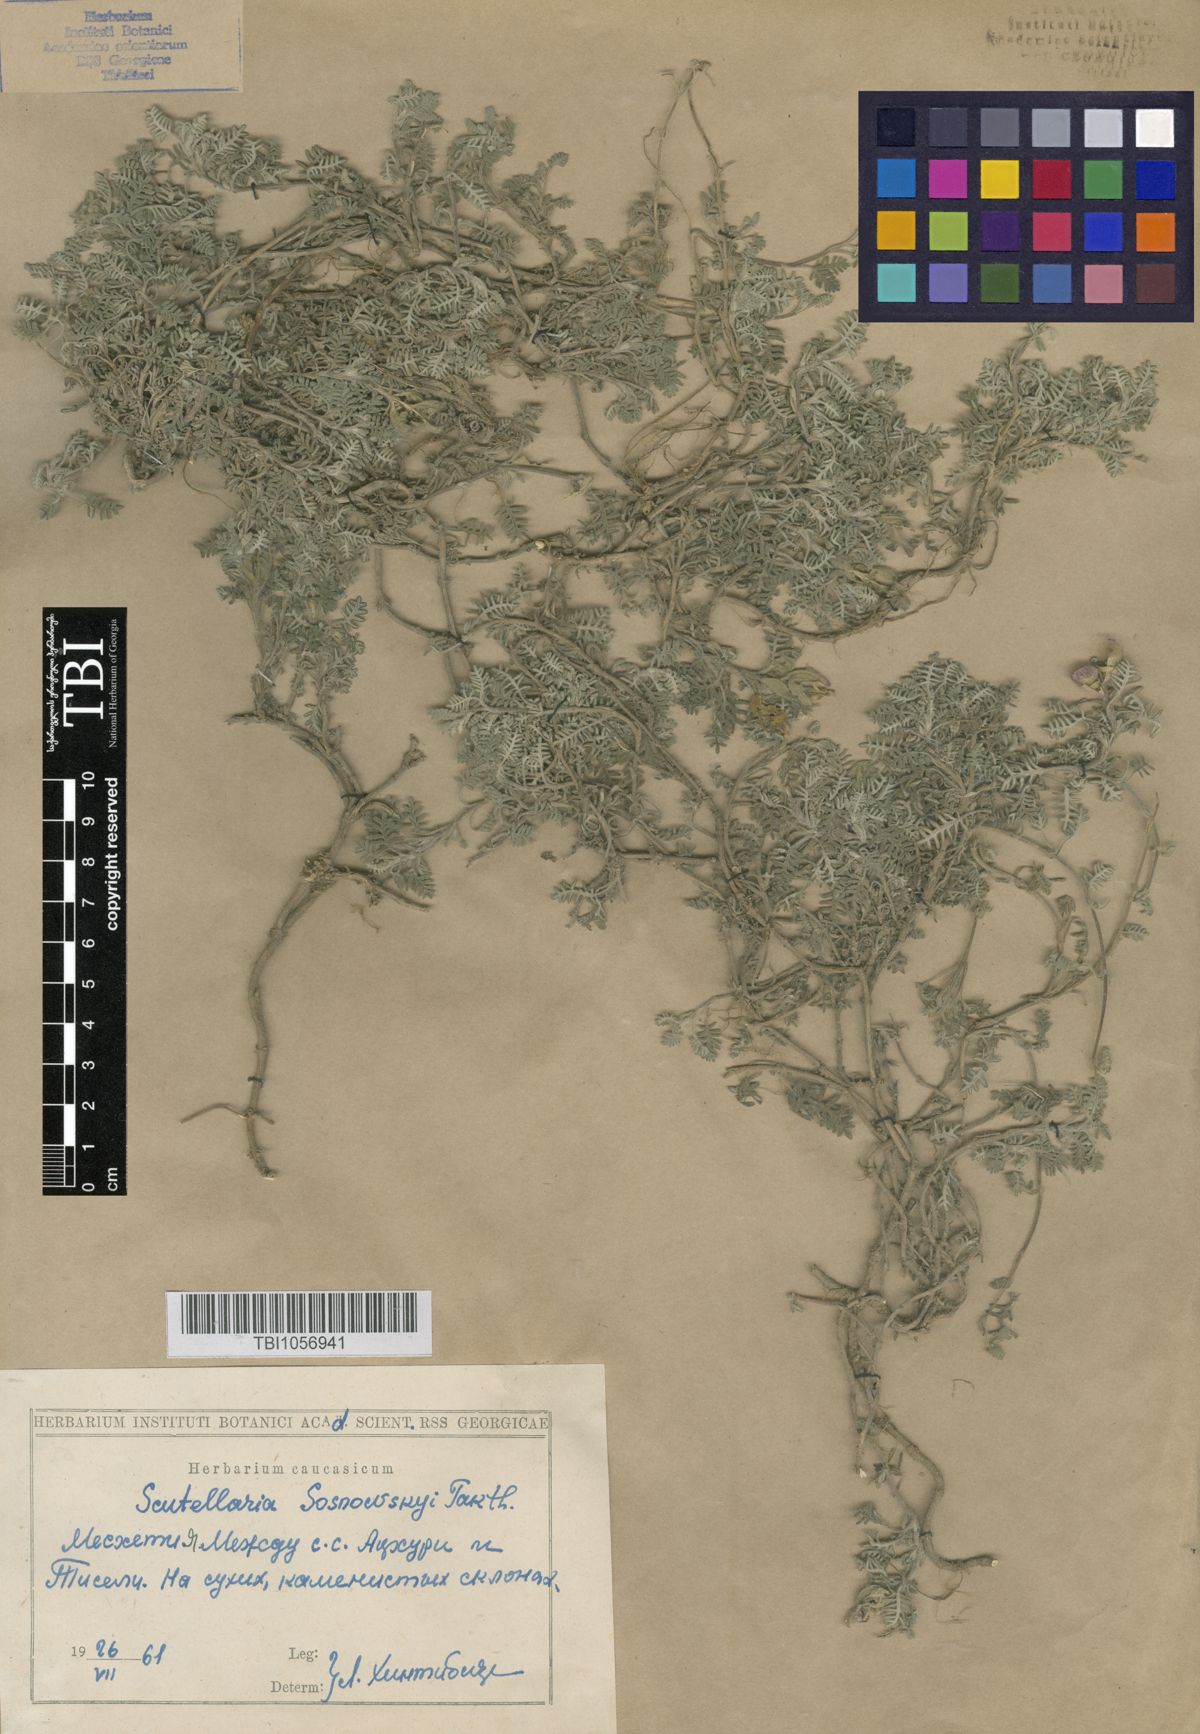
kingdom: Plantae
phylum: Tracheophyta
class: Magnoliopsida
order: Lamiales
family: Lamiaceae
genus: Scutellaria
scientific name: Scutellaria sosnowskyi
